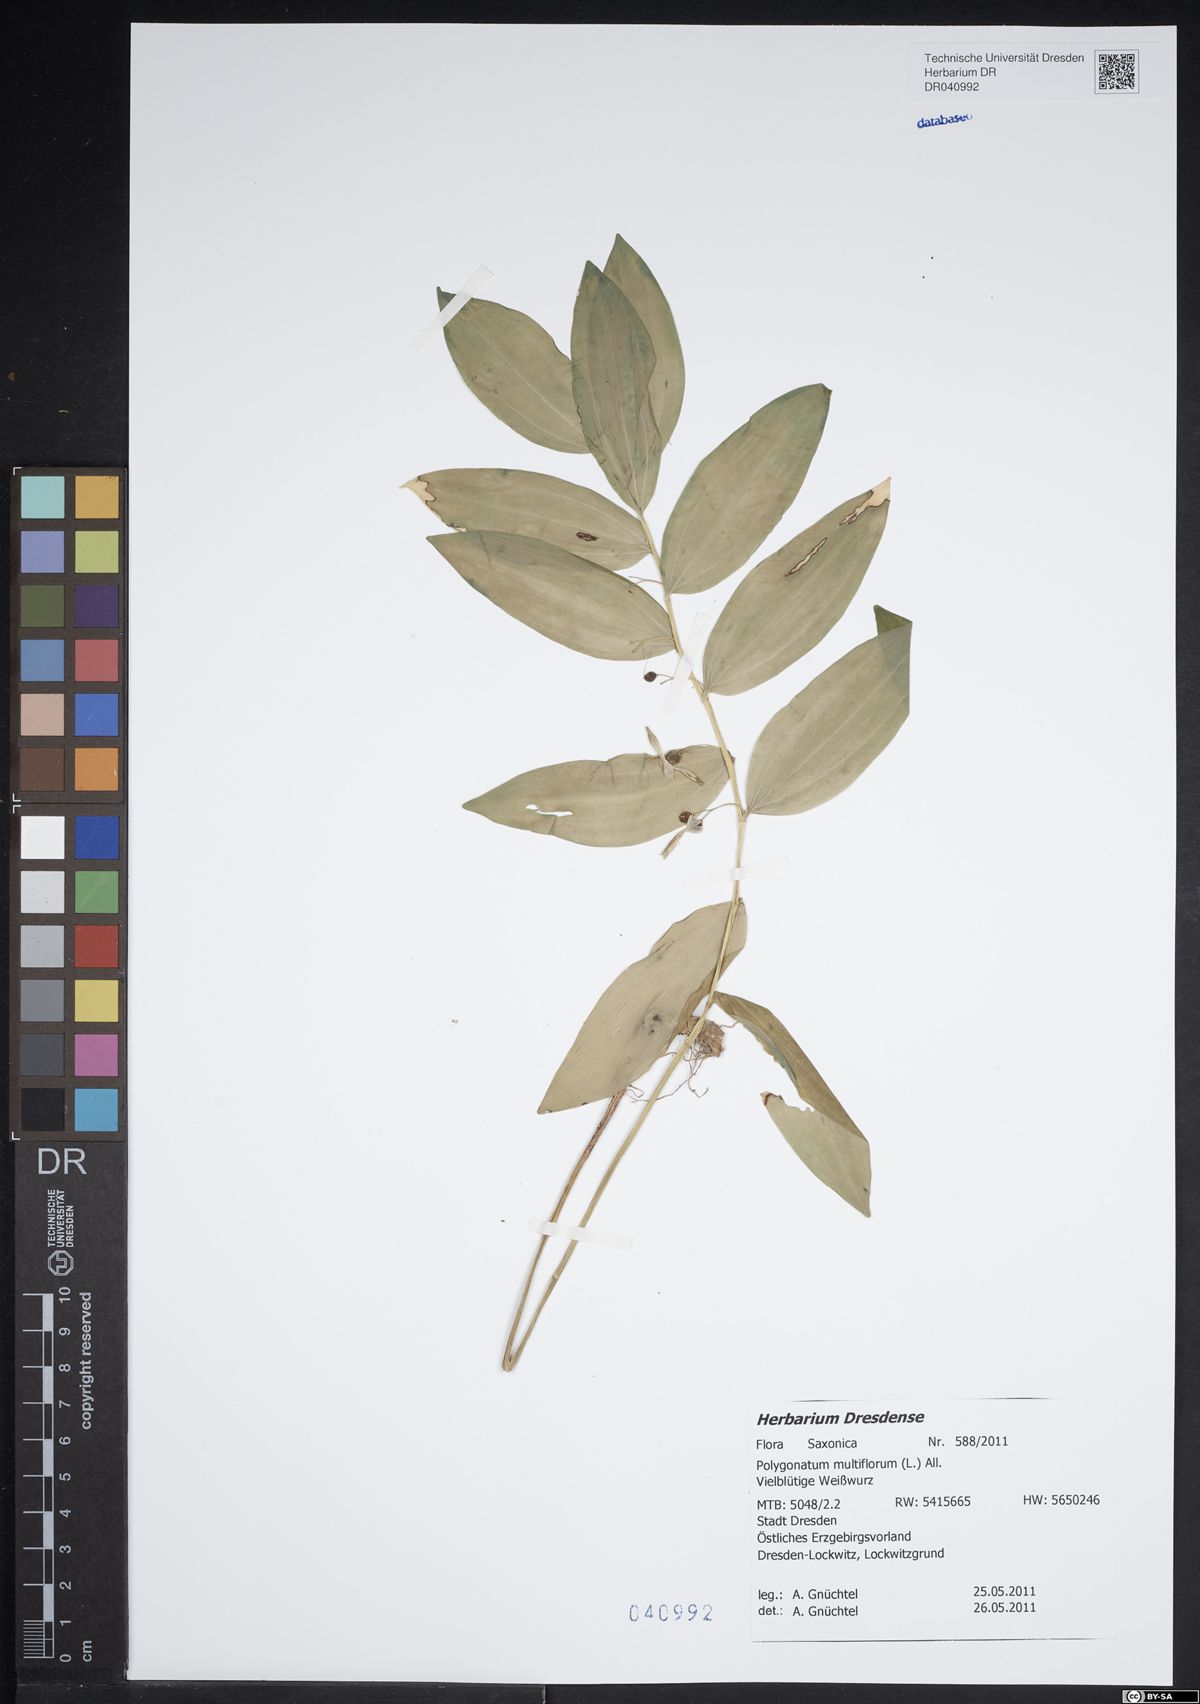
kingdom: Plantae
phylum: Tracheophyta
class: Liliopsida
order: Asparagales
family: Asparagaceae
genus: Polygonatum
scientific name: Polygonatum multiflorum
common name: Solomon's-seal
